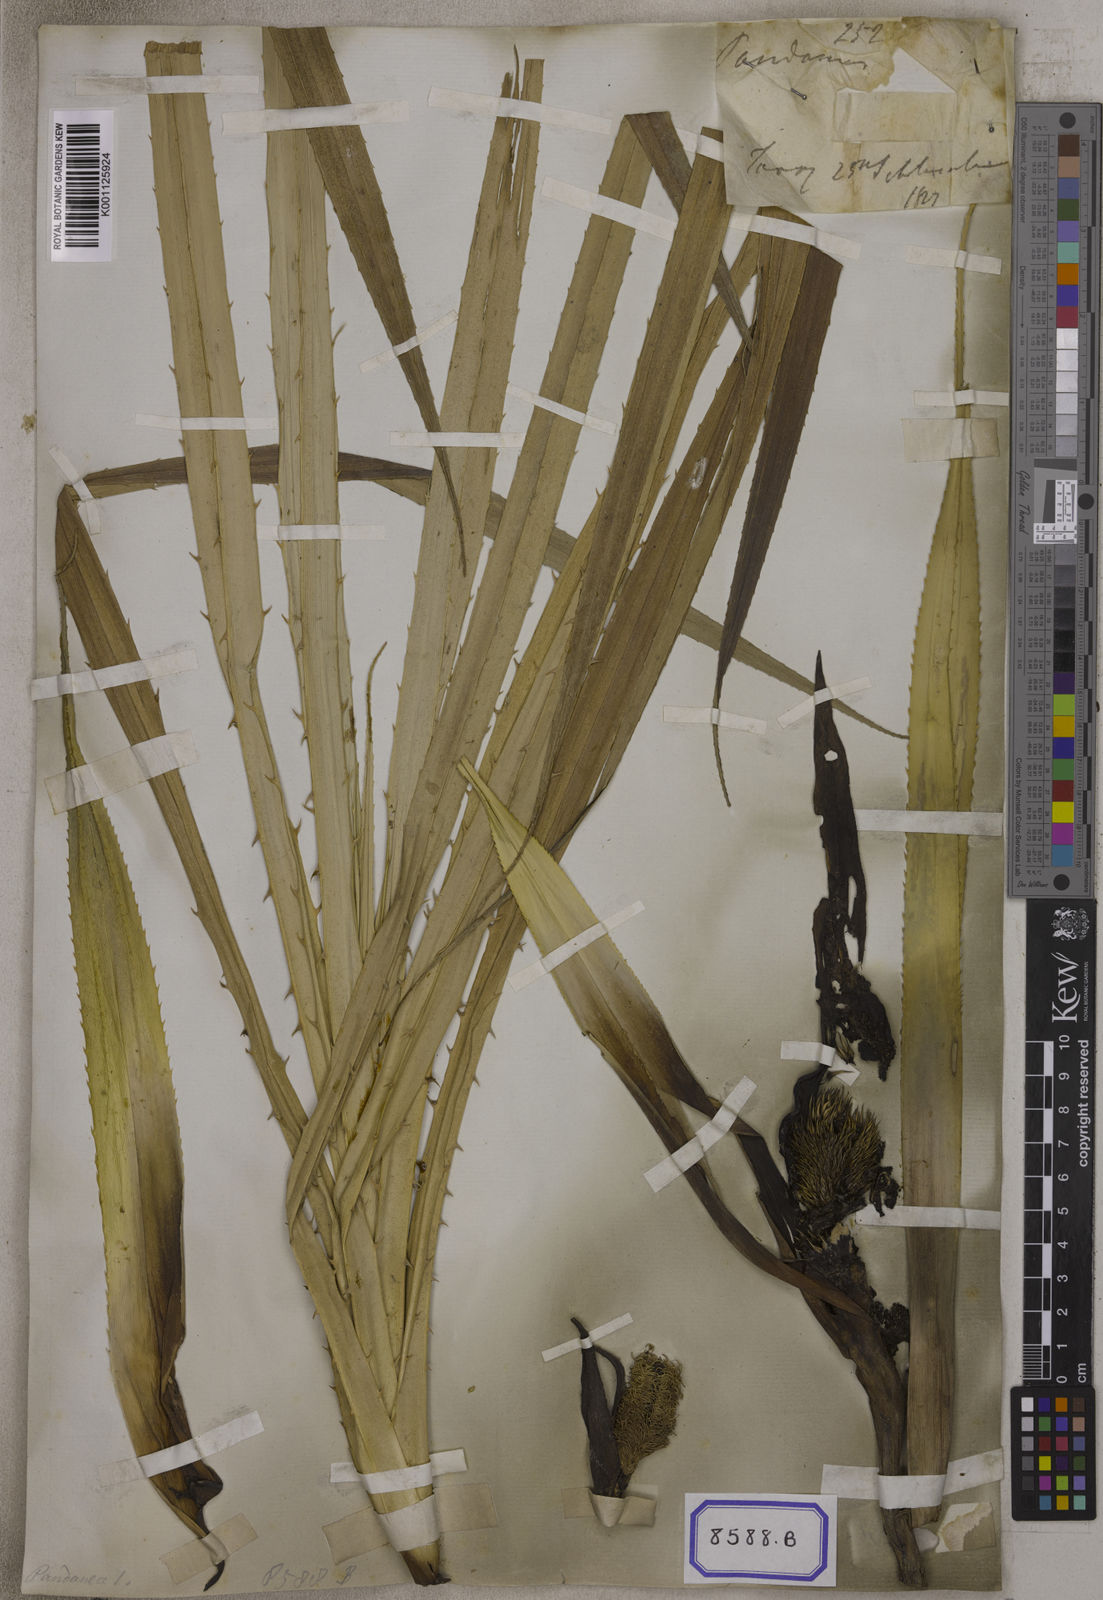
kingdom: Plantae
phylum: Tracheophyta
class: Liliopsida
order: Pandanales
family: Pandanaceae
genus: Pandanus
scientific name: Pandanus polycephalus
